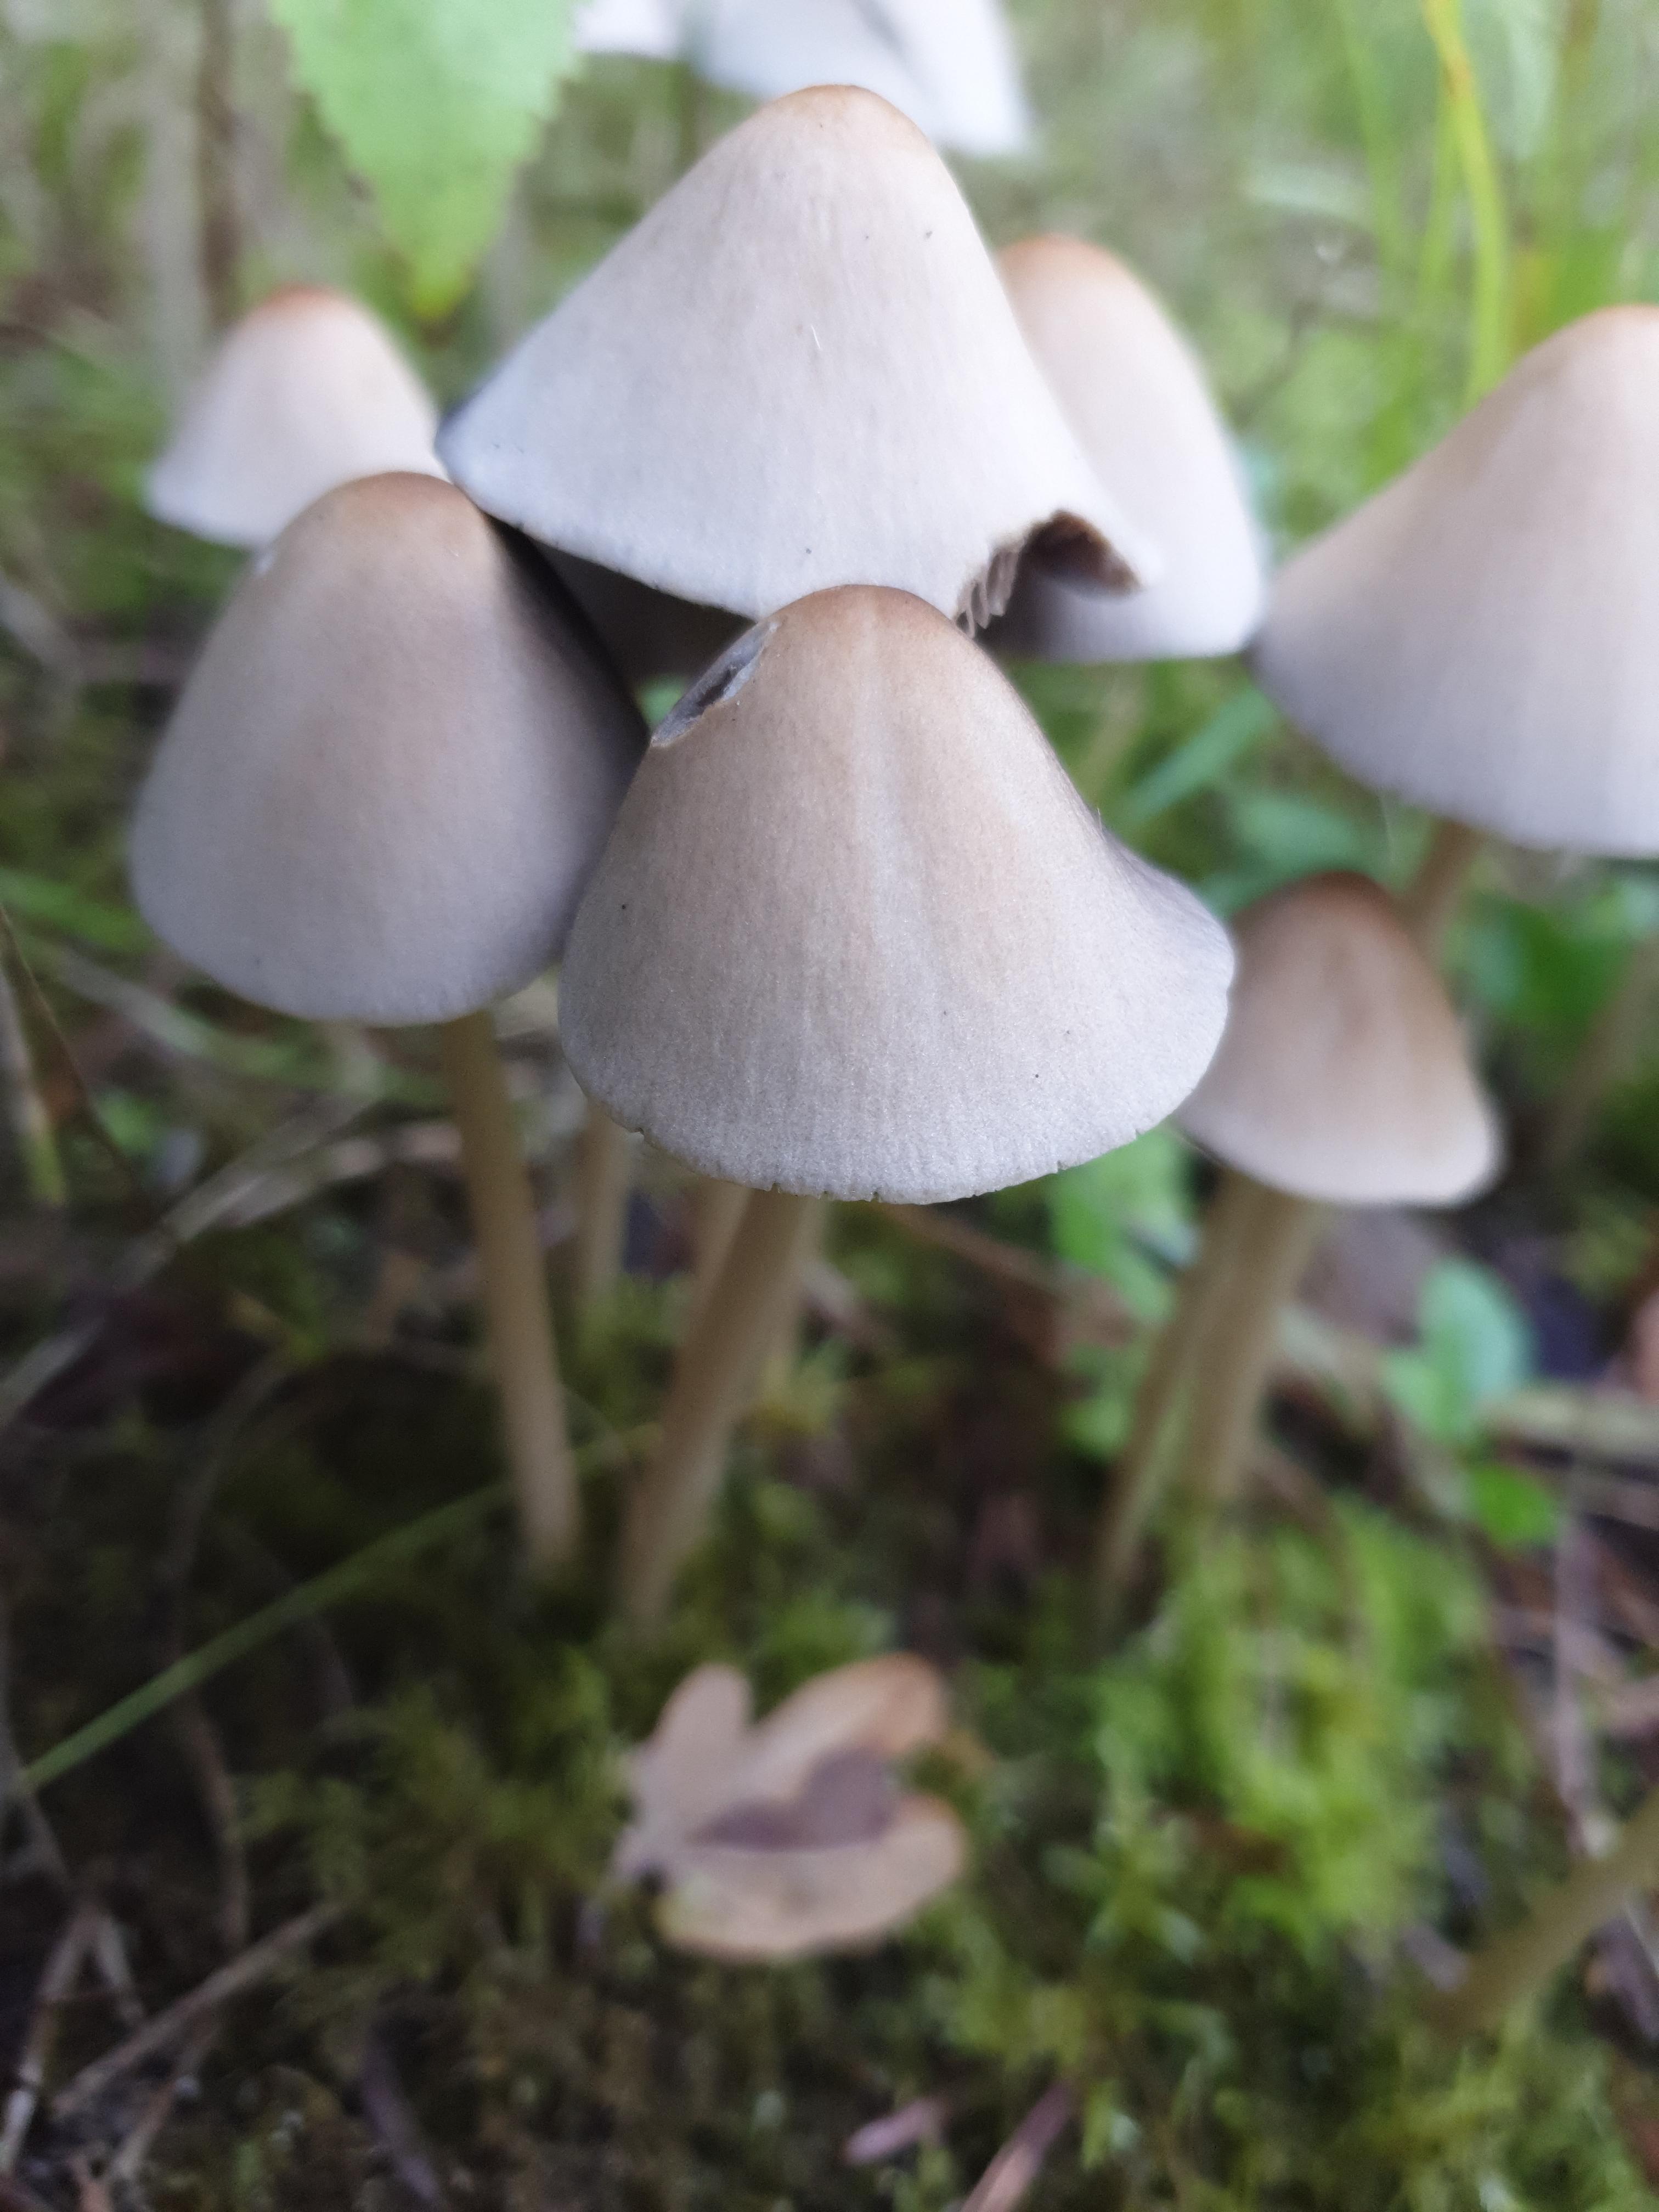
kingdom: Fungi
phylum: Basidiomycota
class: Agaricomycetes
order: Agaricales
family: Psathyrellaceae
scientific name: Psathyrellaceae
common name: mørkhatfamilien
